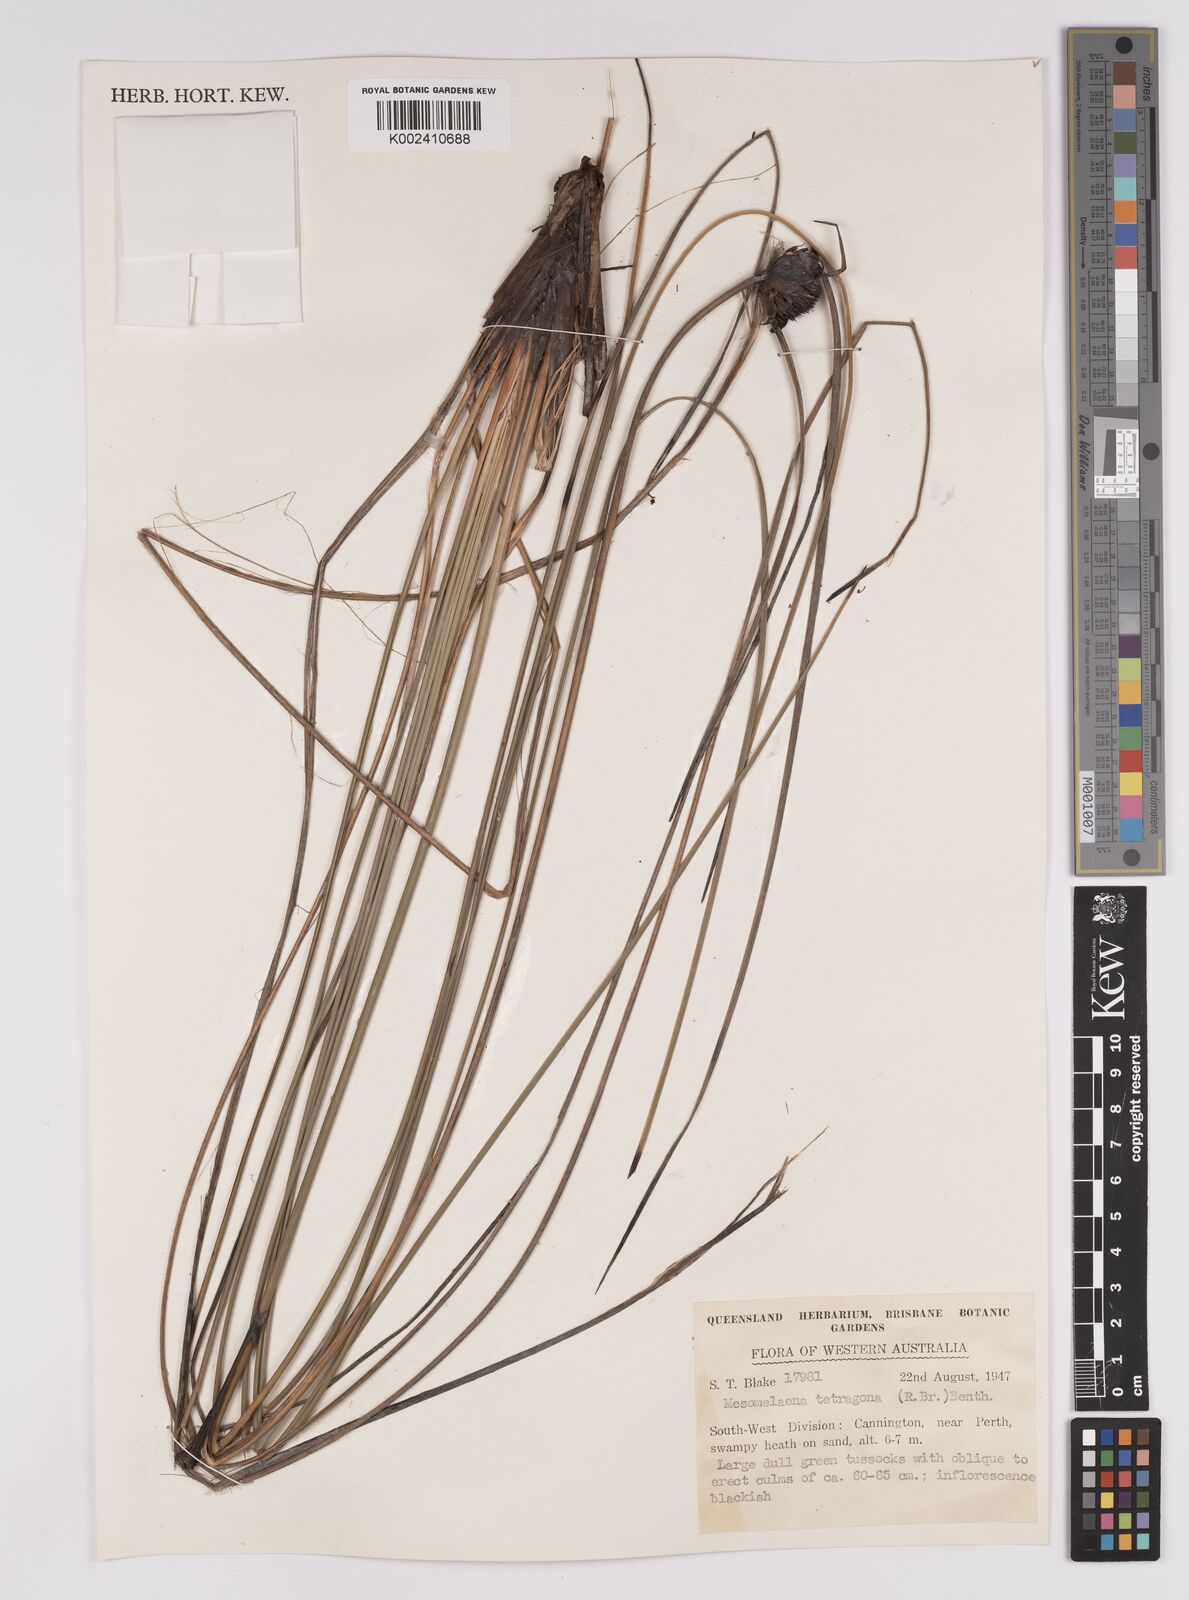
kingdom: Plantae
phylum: Tracheophyta
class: Liliopsida
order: Poales
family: Cyperaceae
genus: Mesomelaena
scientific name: Mesomelaena tetragona
